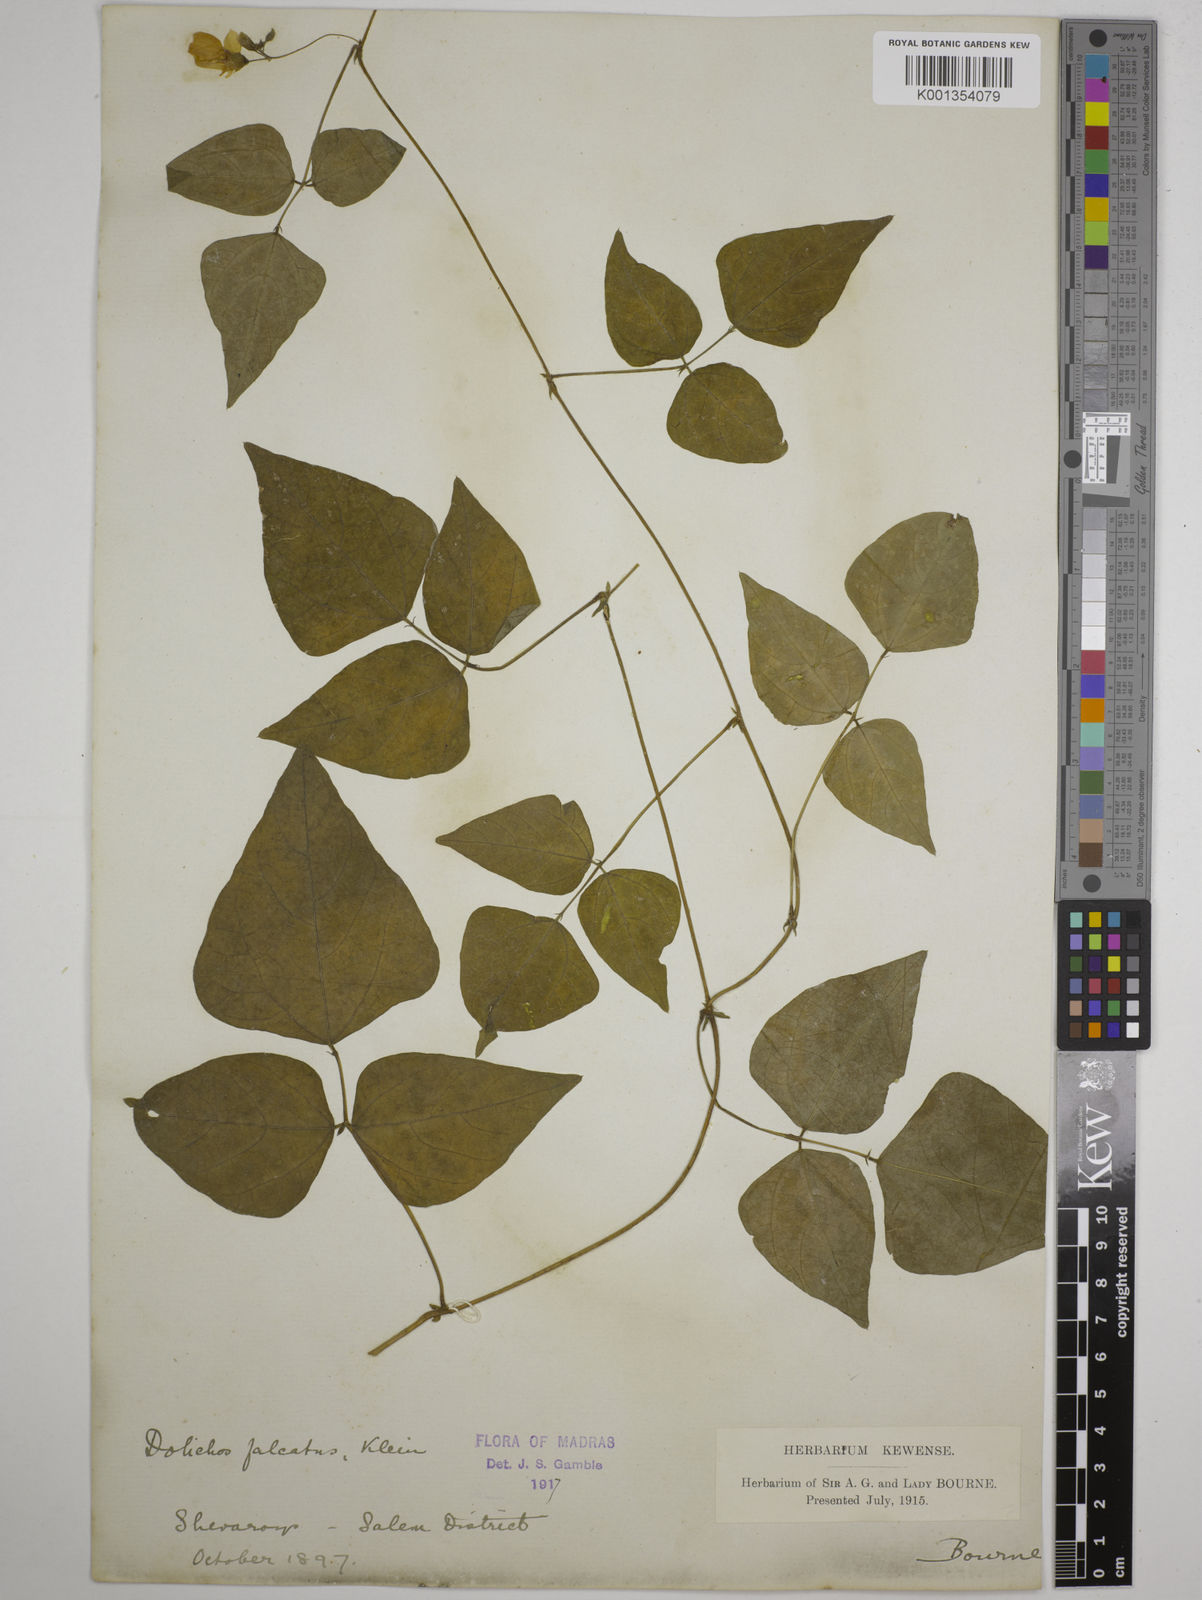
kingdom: Plantae
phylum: Tracheophyta
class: Magnoliopsida
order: Fabales
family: Fabaceae
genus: Dolichos
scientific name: Dolichos
